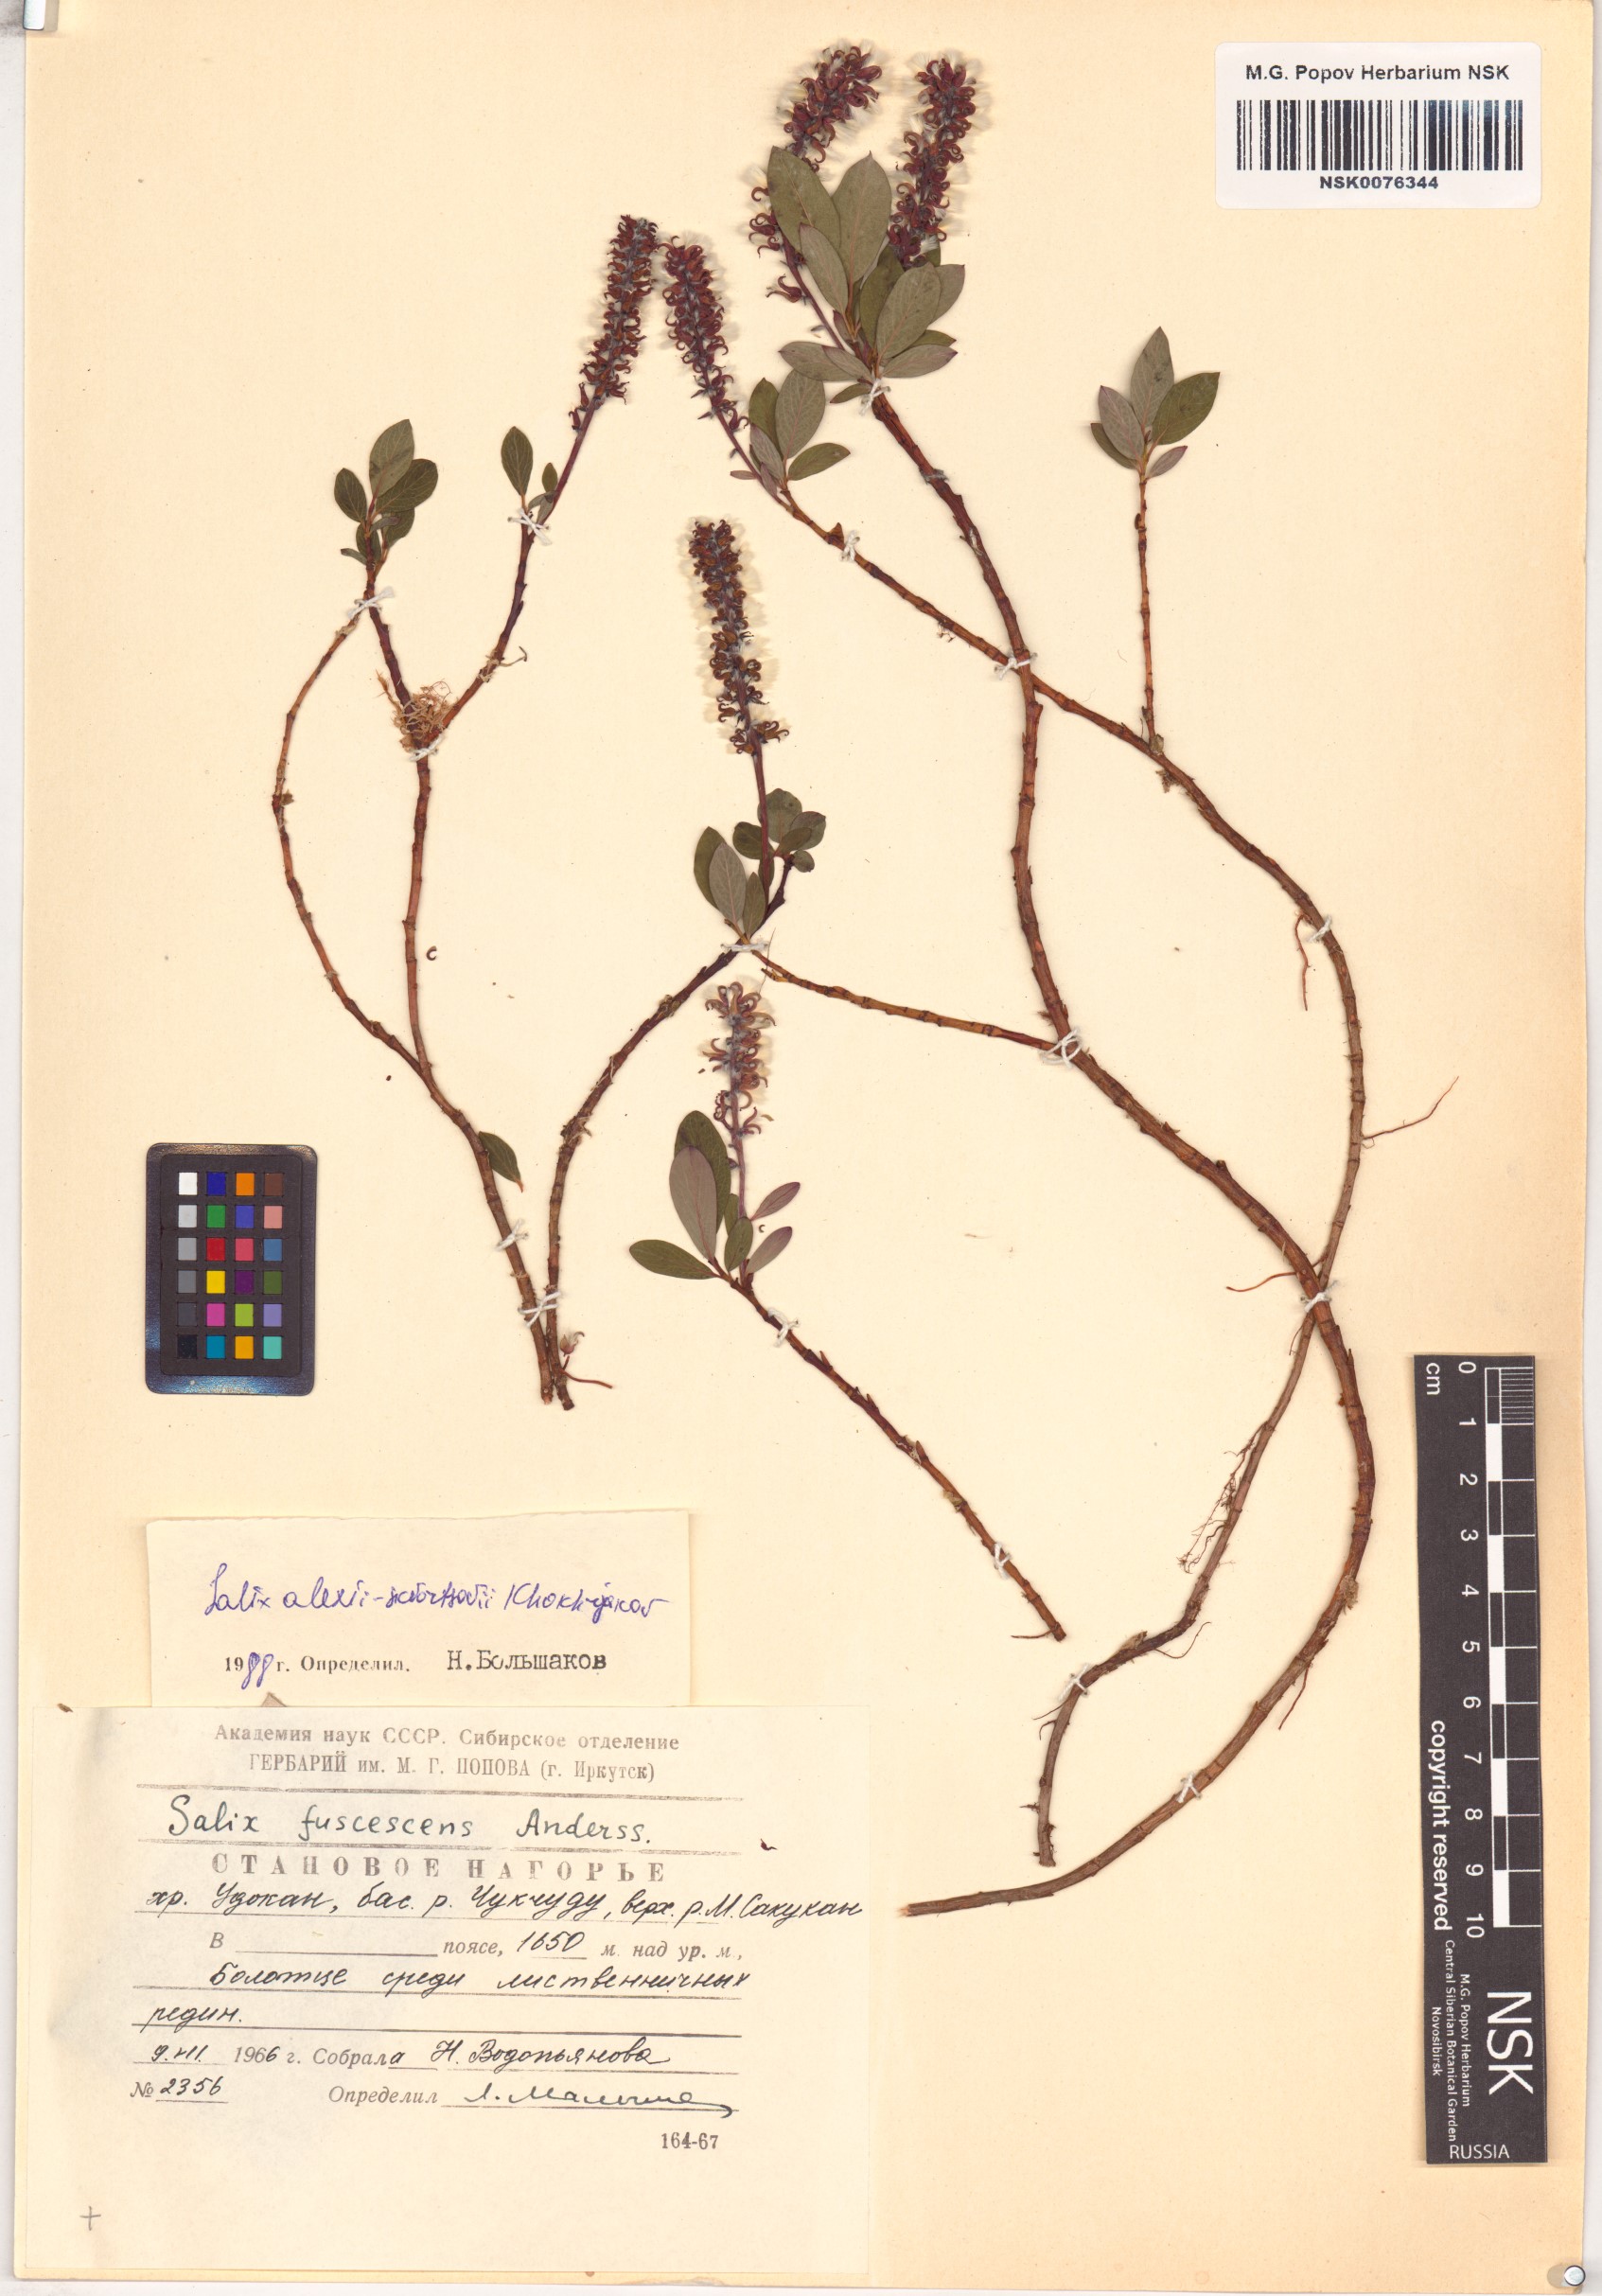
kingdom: Plantae
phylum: Tracheophyta
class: Magnoliopsida
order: Malpighiales
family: Salicaceae
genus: Salix
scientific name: Salix alexii-skvortzovii
